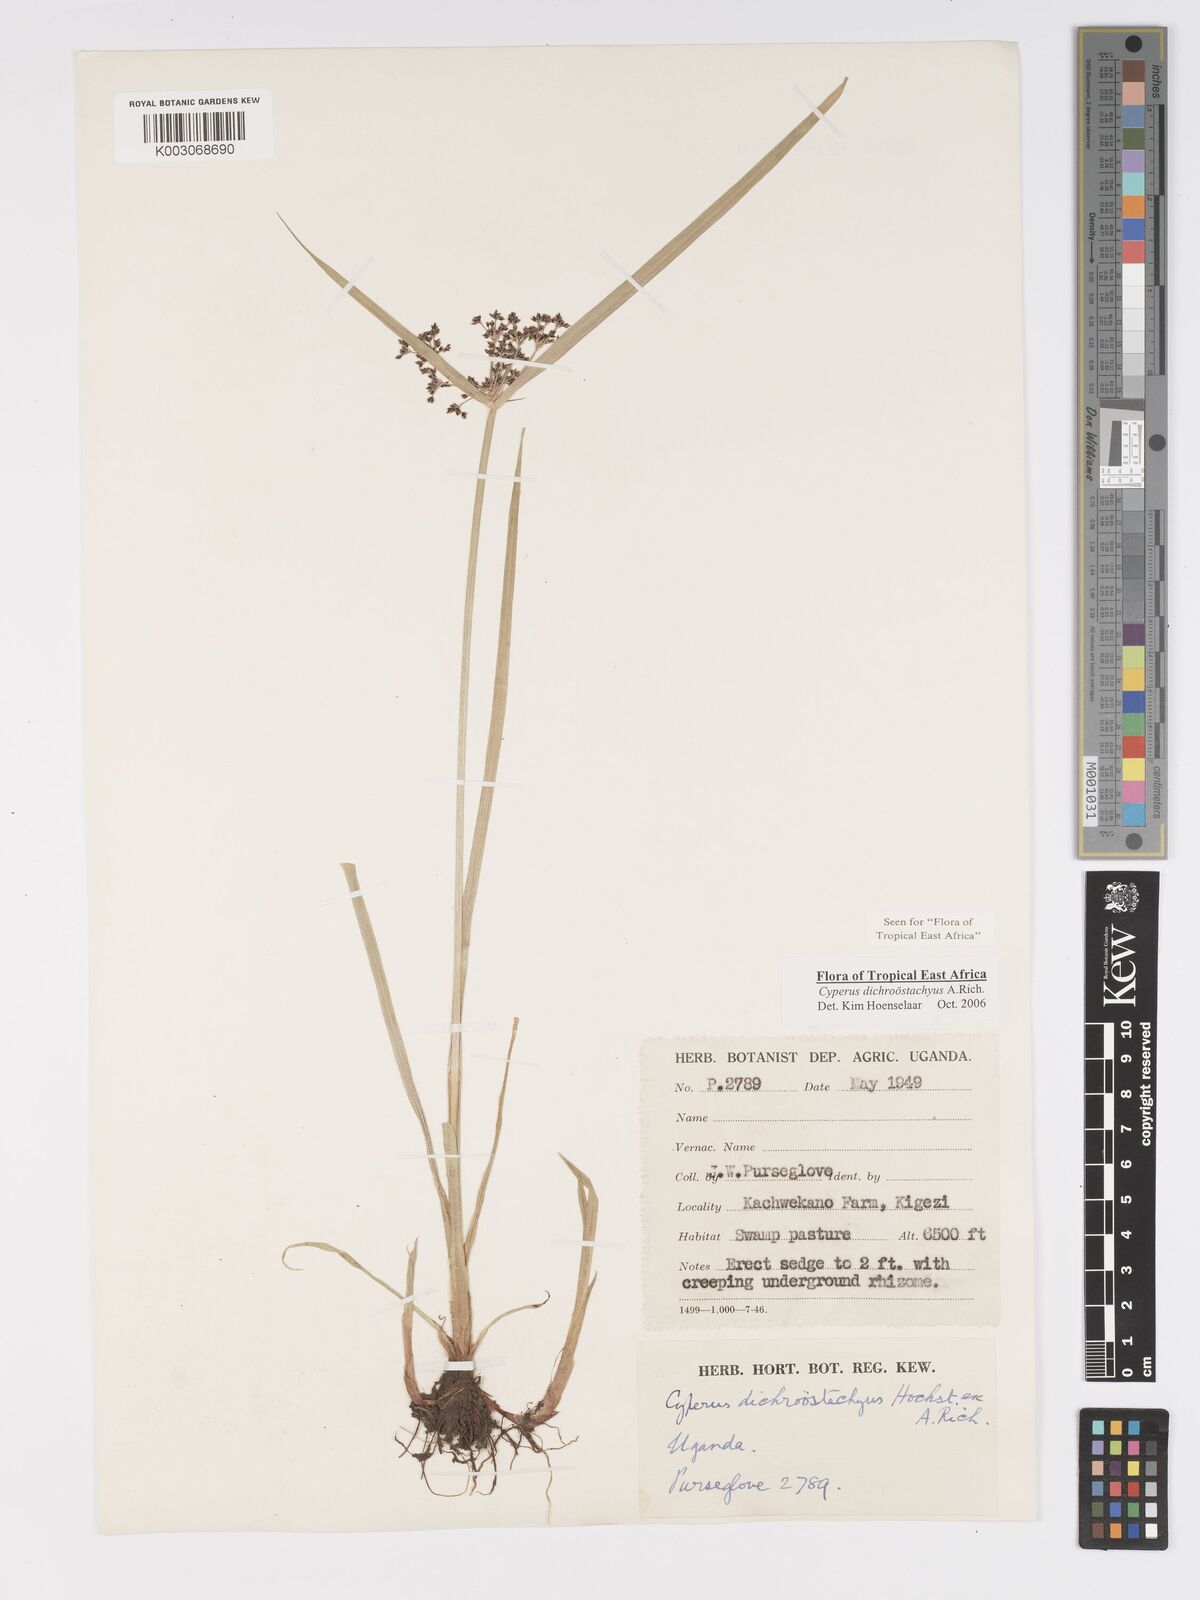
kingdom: Plantae
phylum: Tracheophyta
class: Liliopsida
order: Poales
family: Cyperaceae
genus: Cyperus
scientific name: Cyperus dichrostachyus
